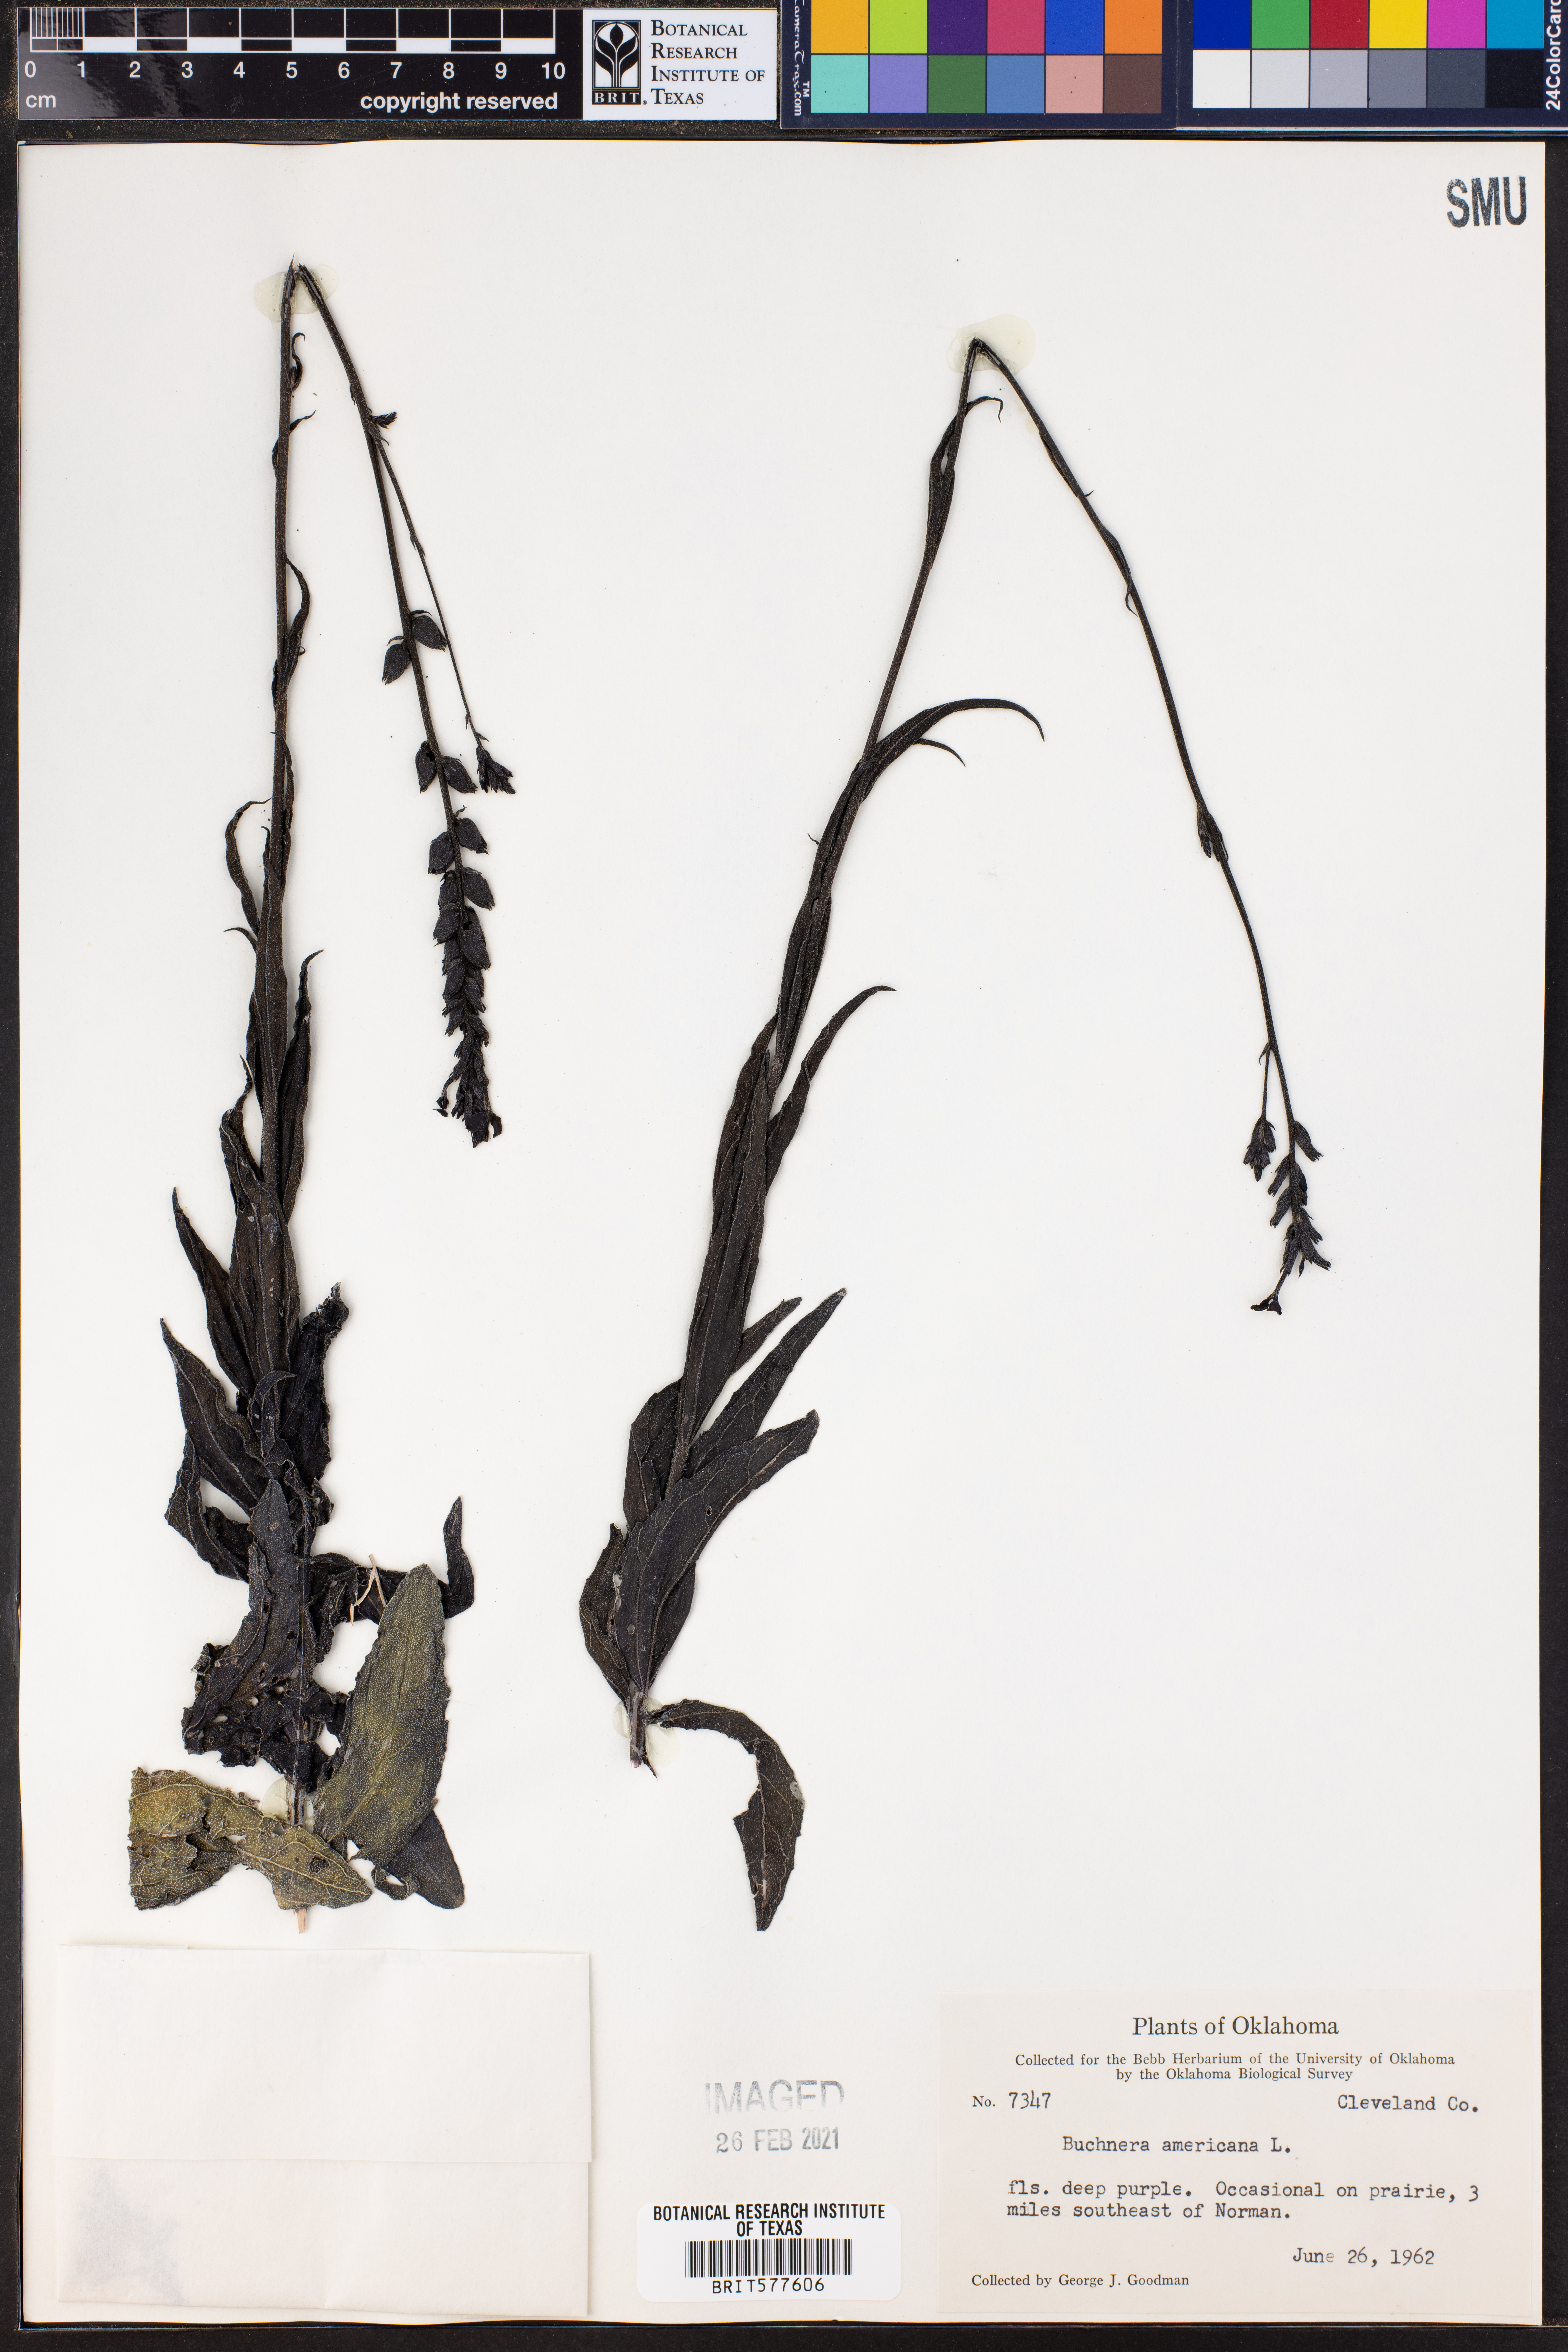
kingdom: Plantae
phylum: Tracheophyta
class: Magnoliopsida
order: Lamiales
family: Orobanchaceae
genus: Buchnera
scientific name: Buchnera americana
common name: American bluehearts
